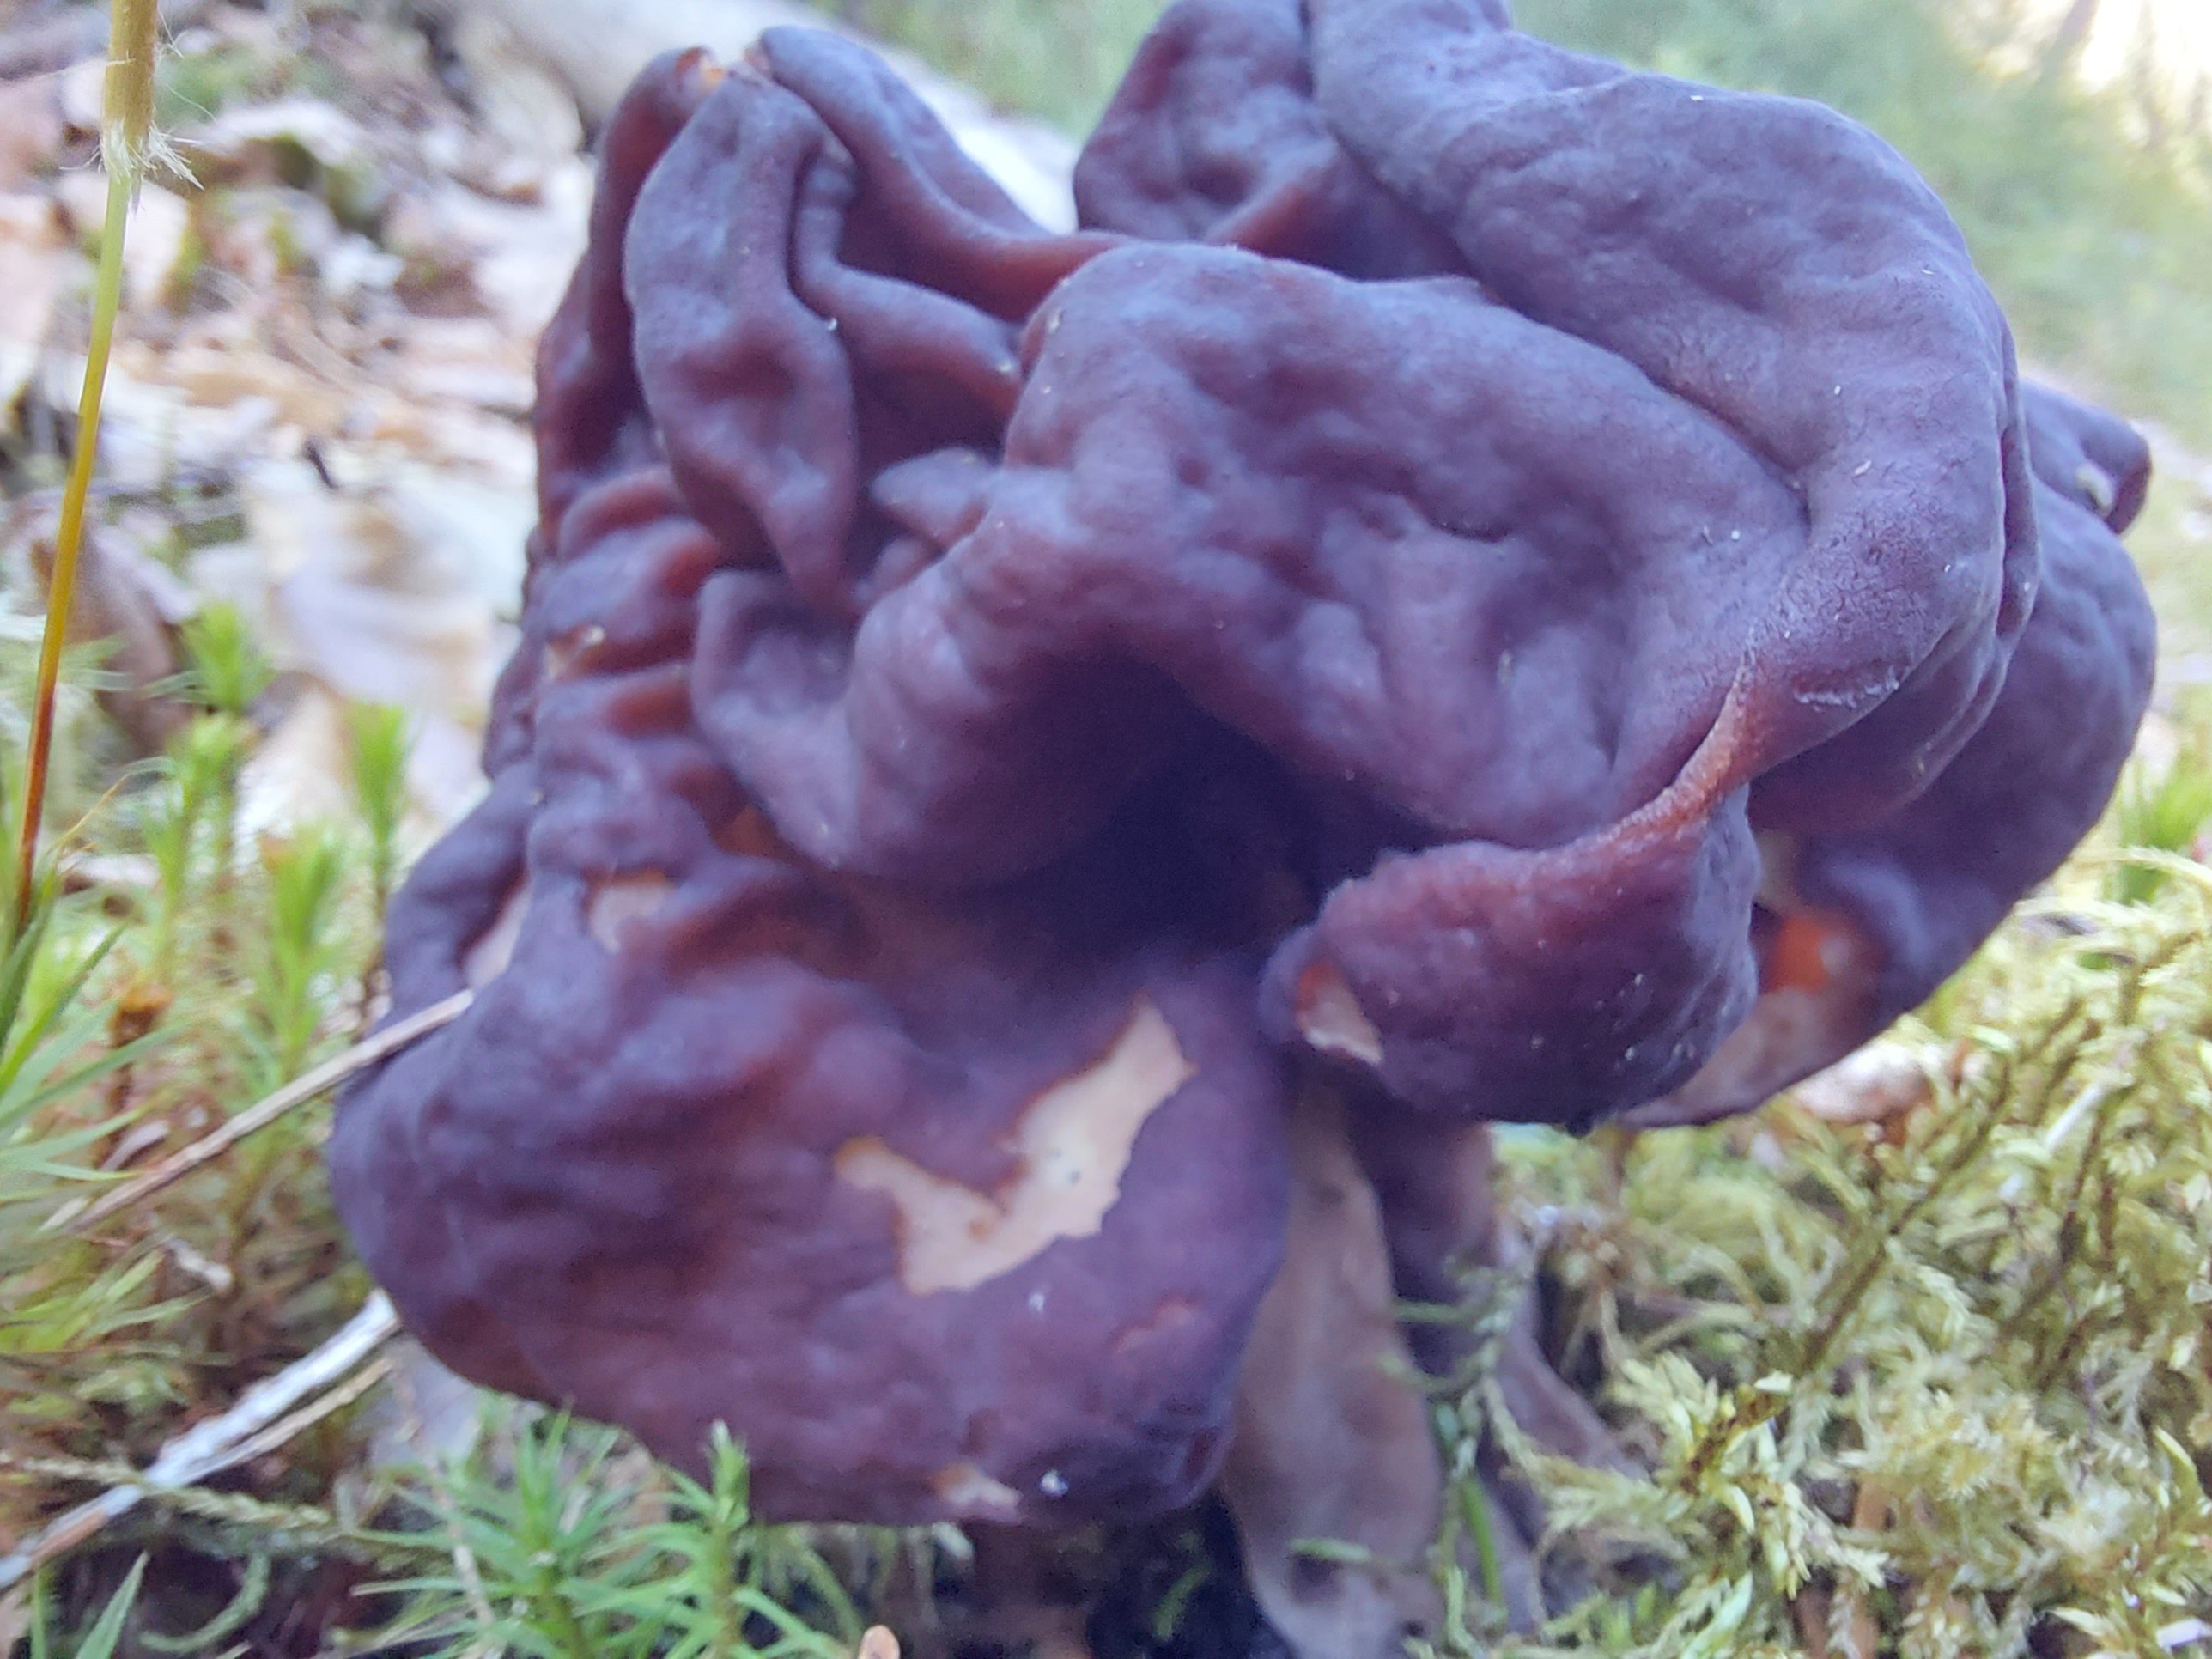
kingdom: Fungi
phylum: Ascomycota
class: Pezizomycetes
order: Pezizales
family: Discinaceae
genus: Gyromitra
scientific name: Gyromitra esculenta
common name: ægte stenmorkel
